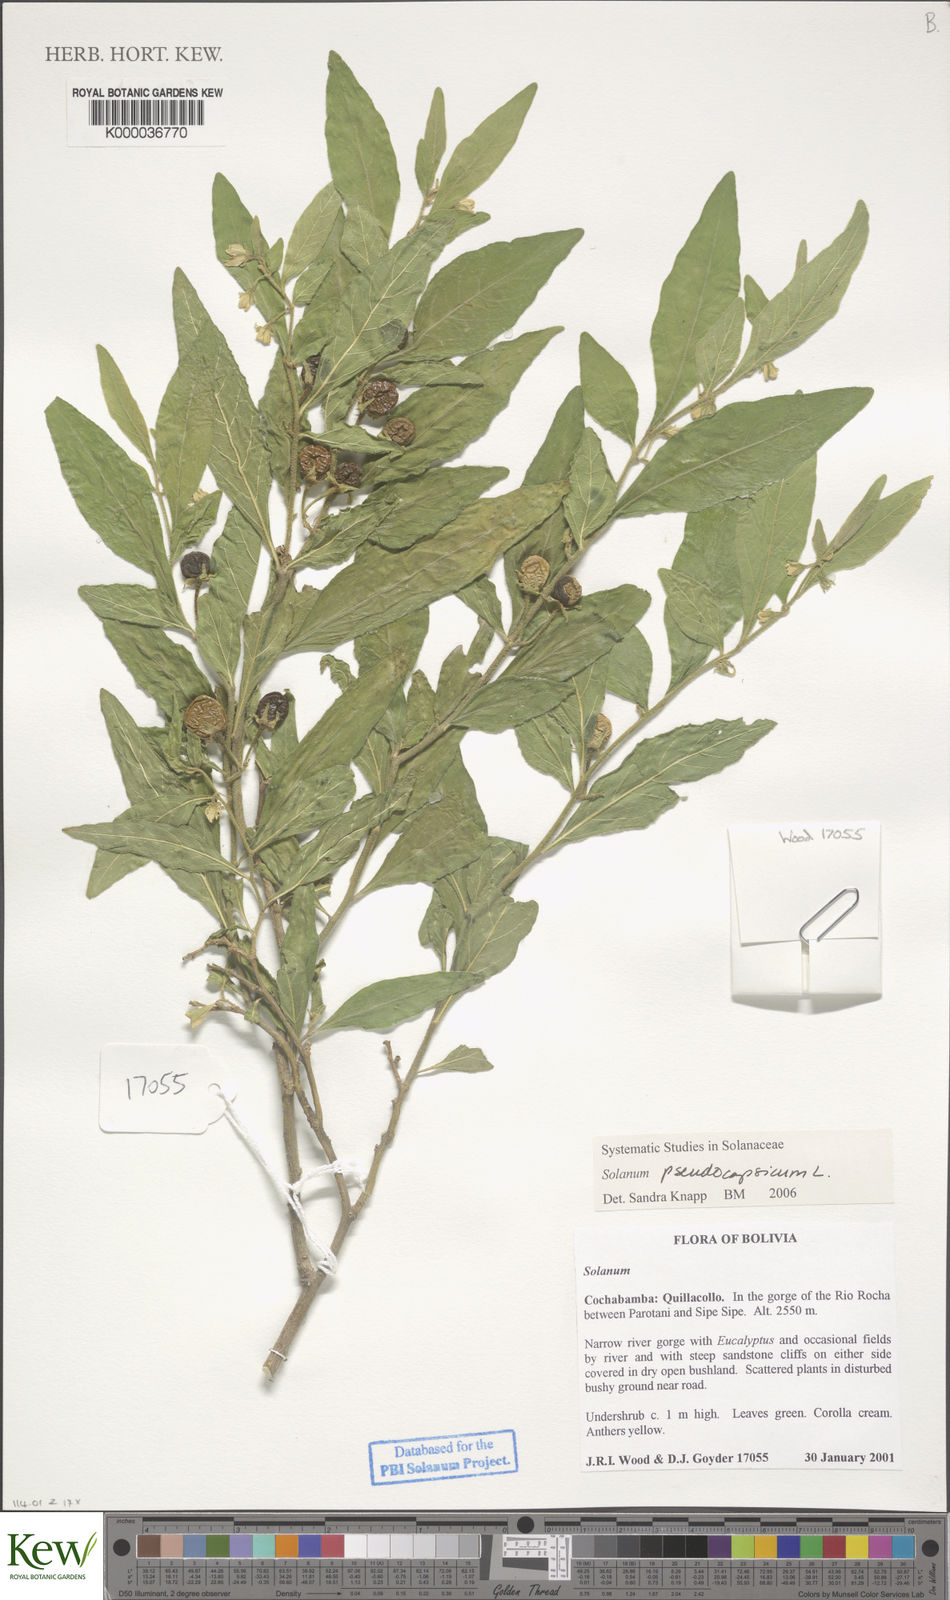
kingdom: Plantae
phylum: Tracheophyta
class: Magnoliopsida
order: Solanales
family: Solanaceae
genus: Solanum
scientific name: Solanum pseudocapsicum
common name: Jerusalem cherry
